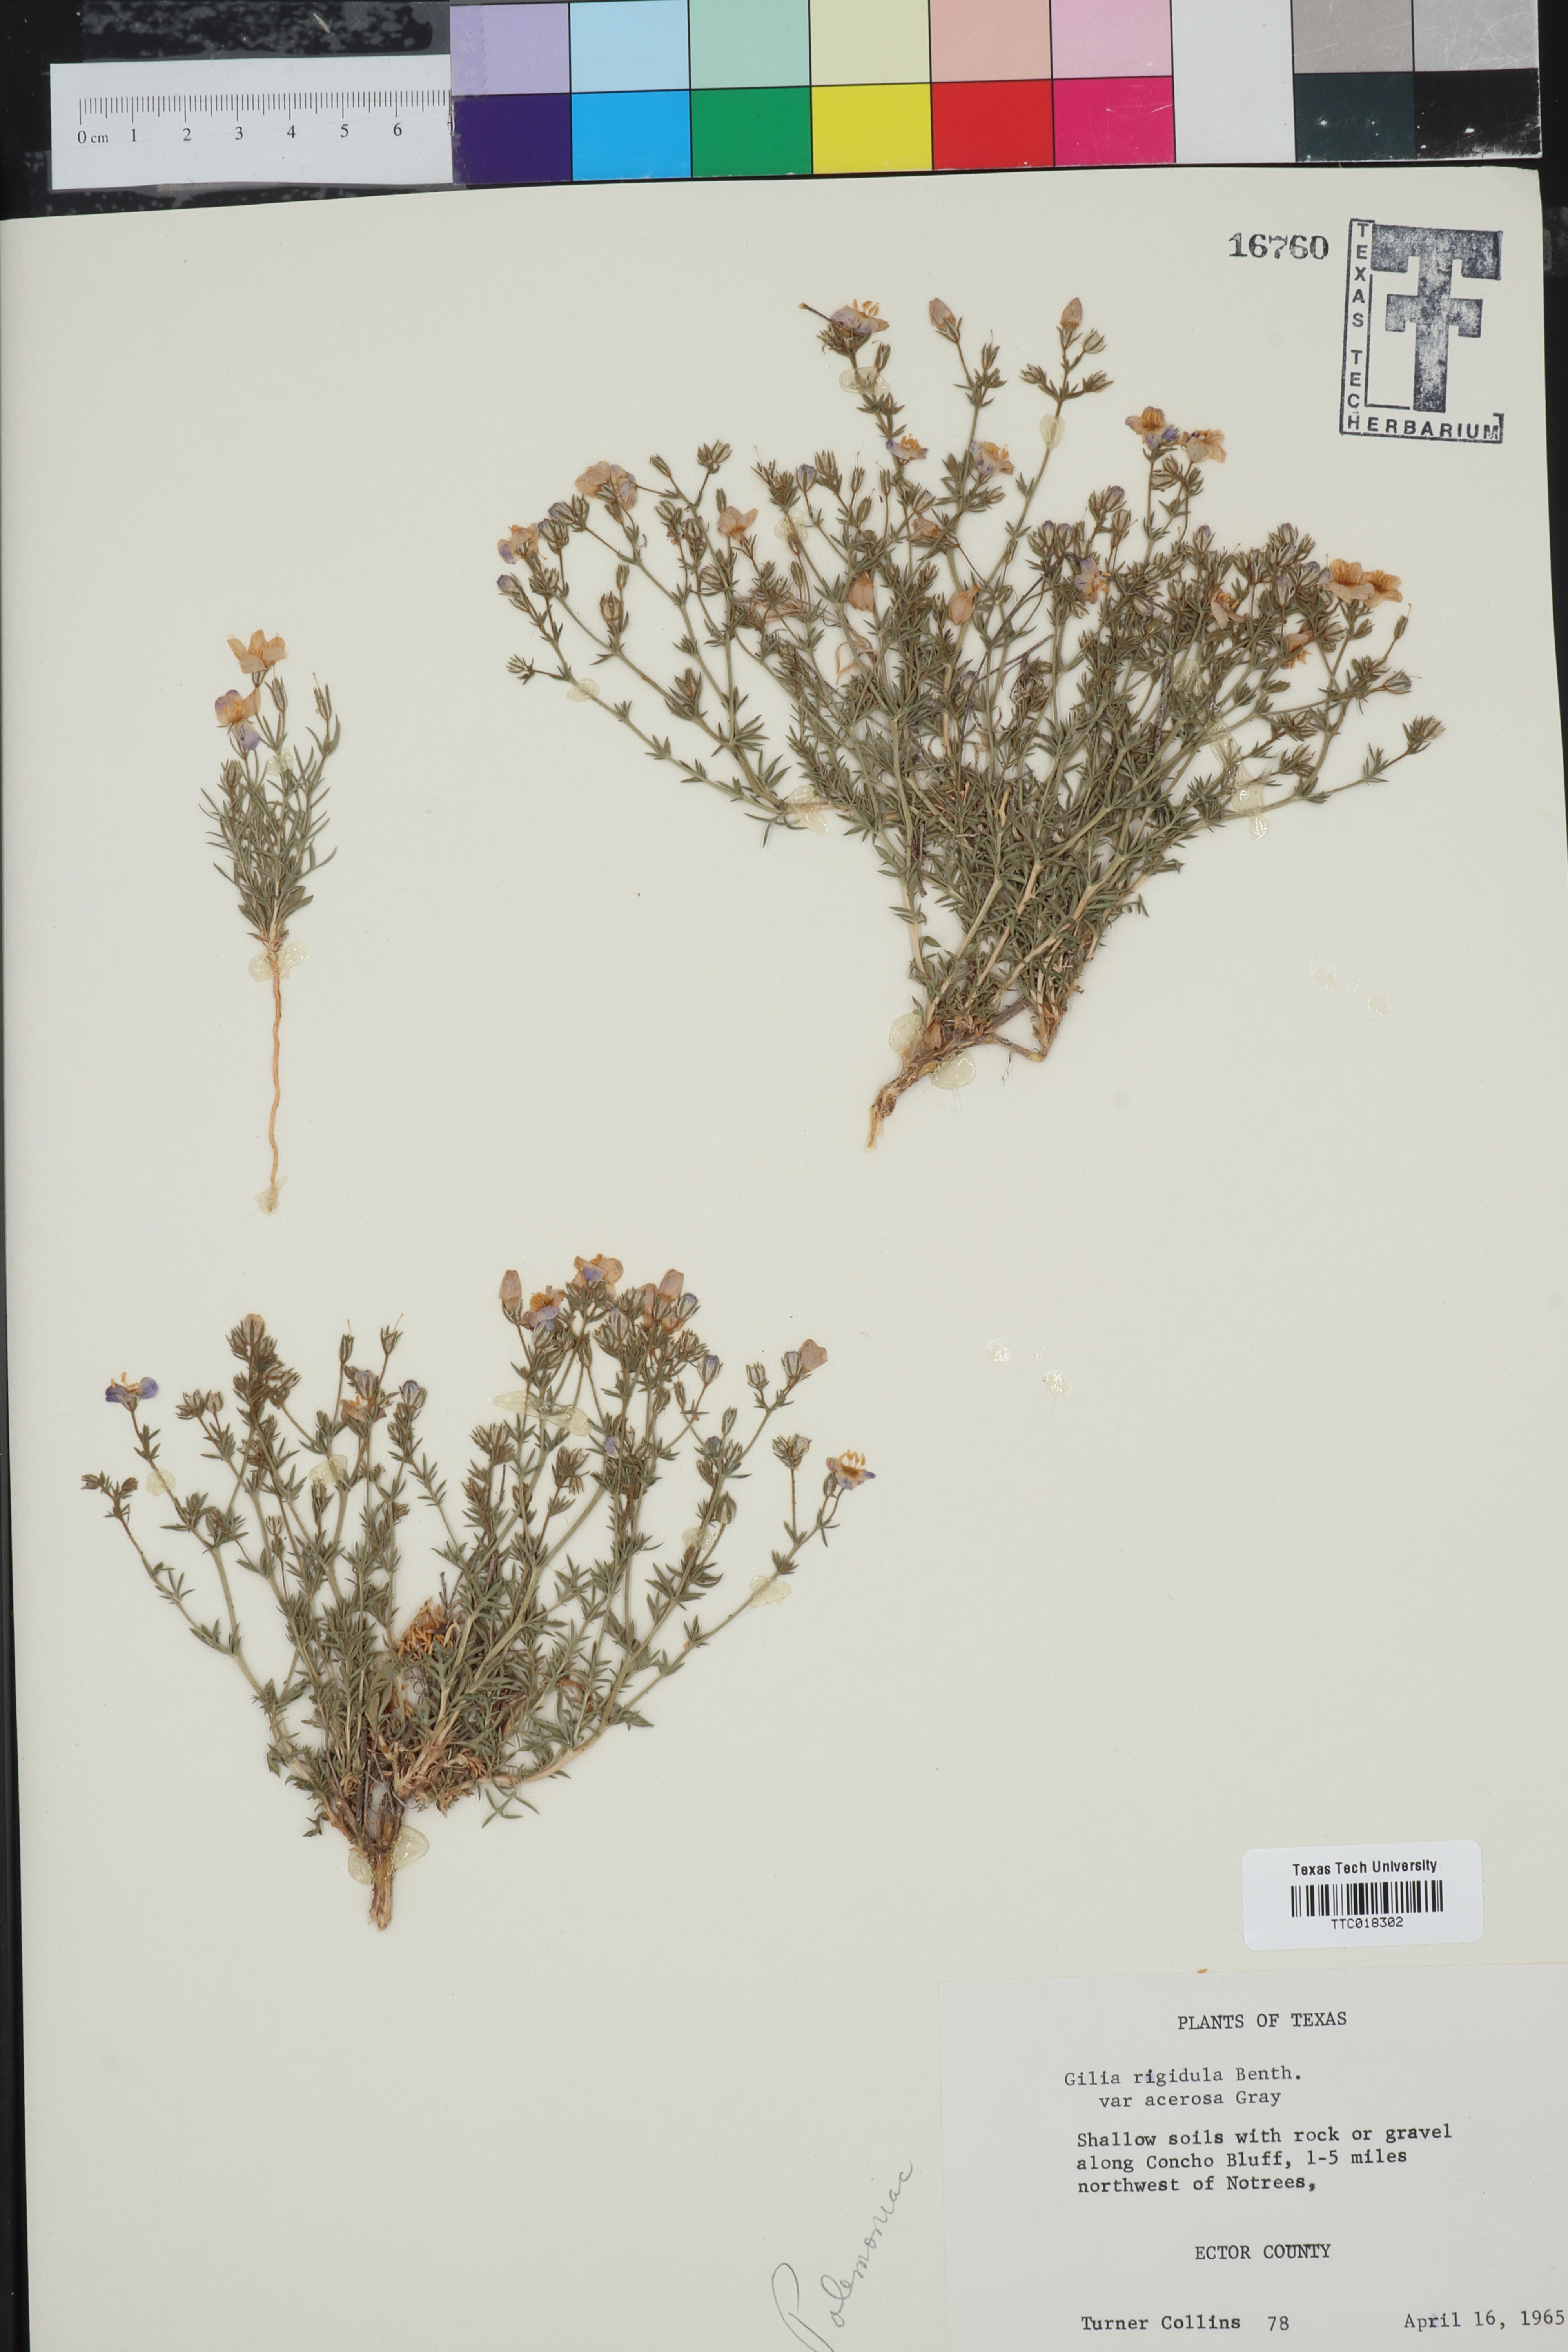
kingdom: Plantae
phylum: Tracheophyta
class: Magnoliopsida
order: Ericales
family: Polemoniaceae
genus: Giliastrum
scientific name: Giliastrum acerosum
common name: Bluebowls
